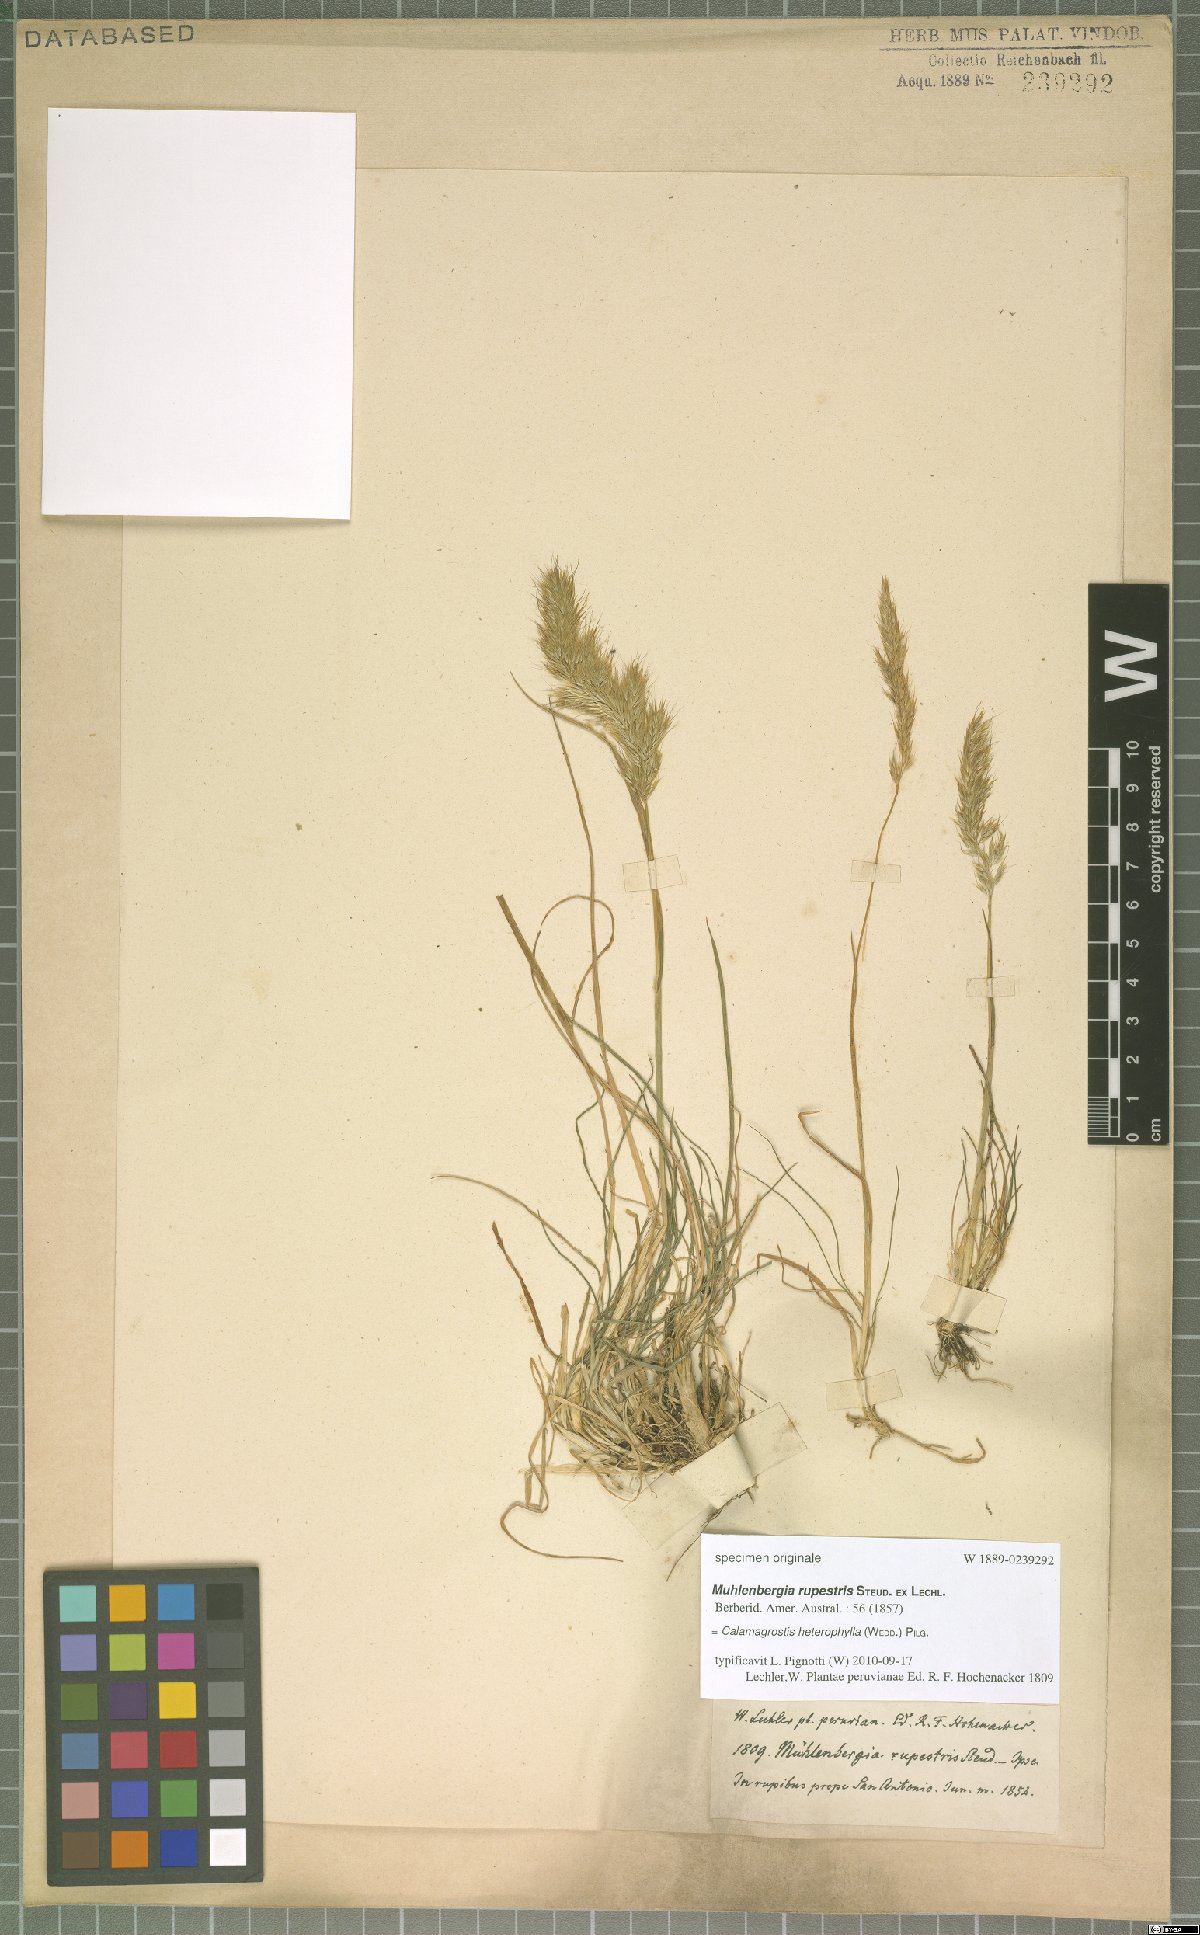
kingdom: Plantae
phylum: Tracheophyta
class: Liliopsida
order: Poales
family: Poaceae
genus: Cinnagrostis
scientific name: Cinnagrostis heterophylla
